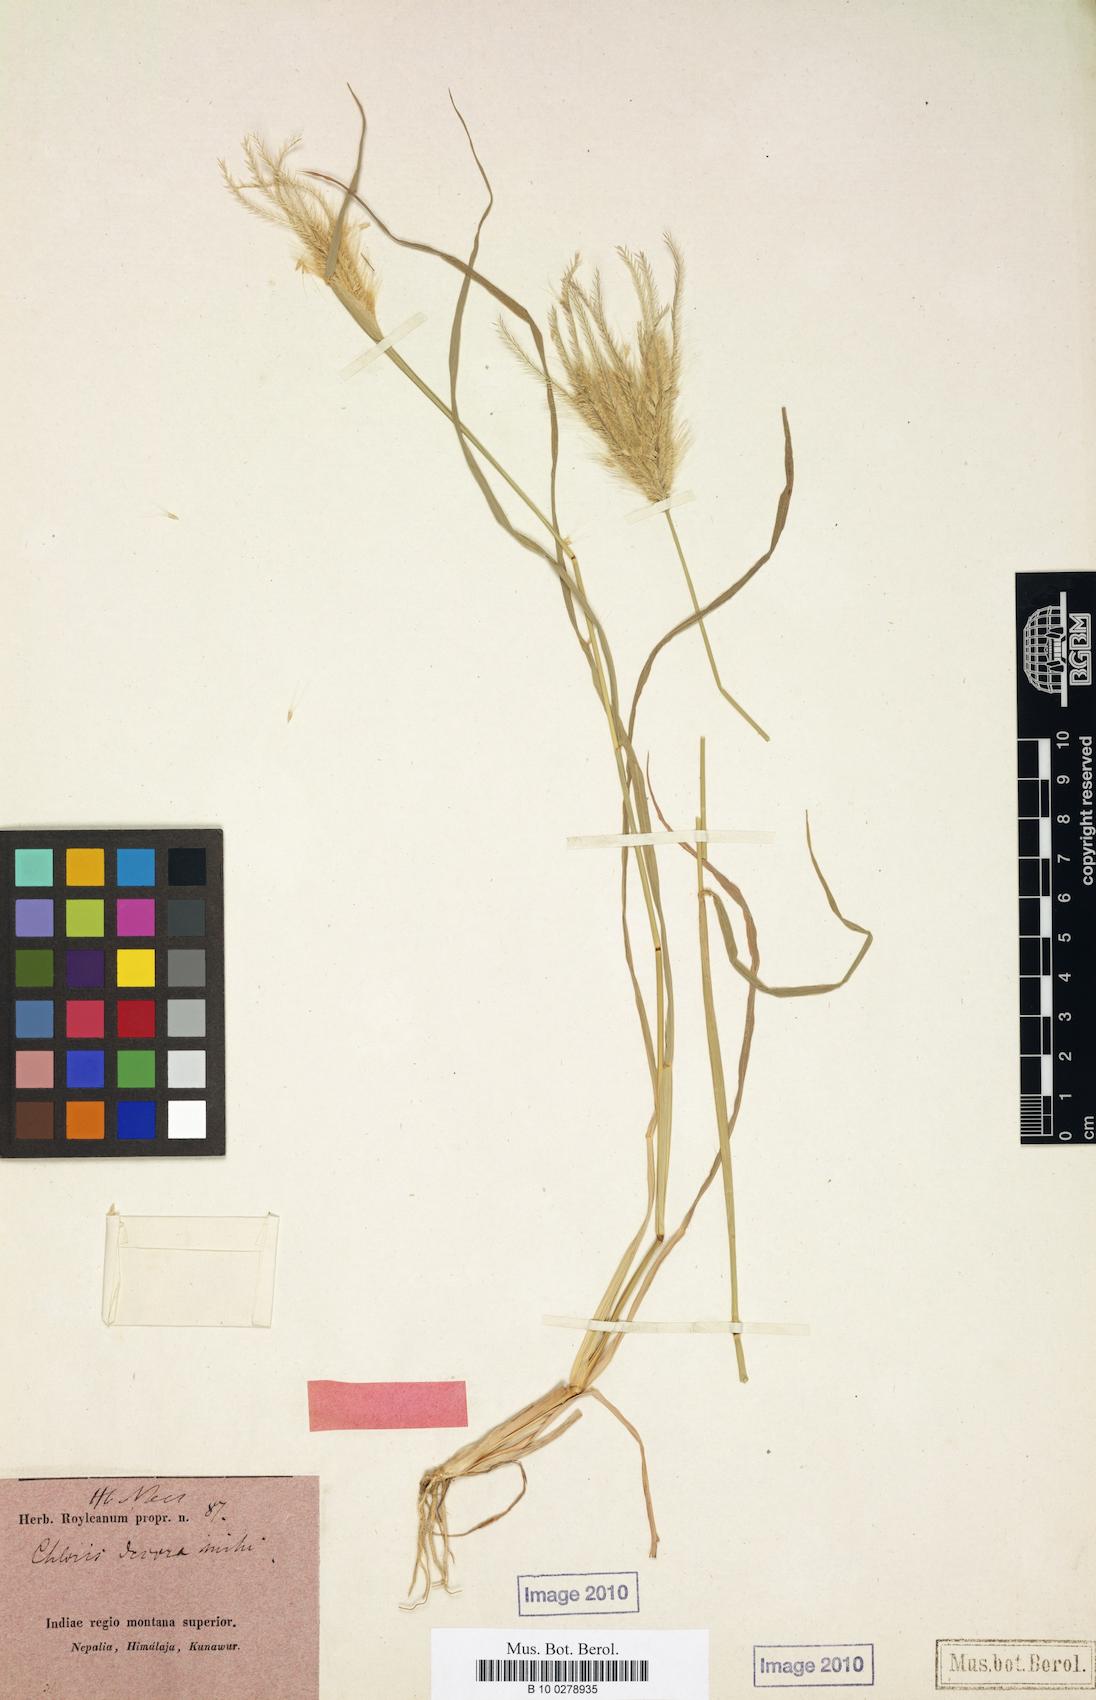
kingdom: Plantae
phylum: Tracheophyta
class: Liliopsida
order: Poales
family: Poaceae
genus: Chloris
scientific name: Chloris virgata
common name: Feathery rhodes-grass
